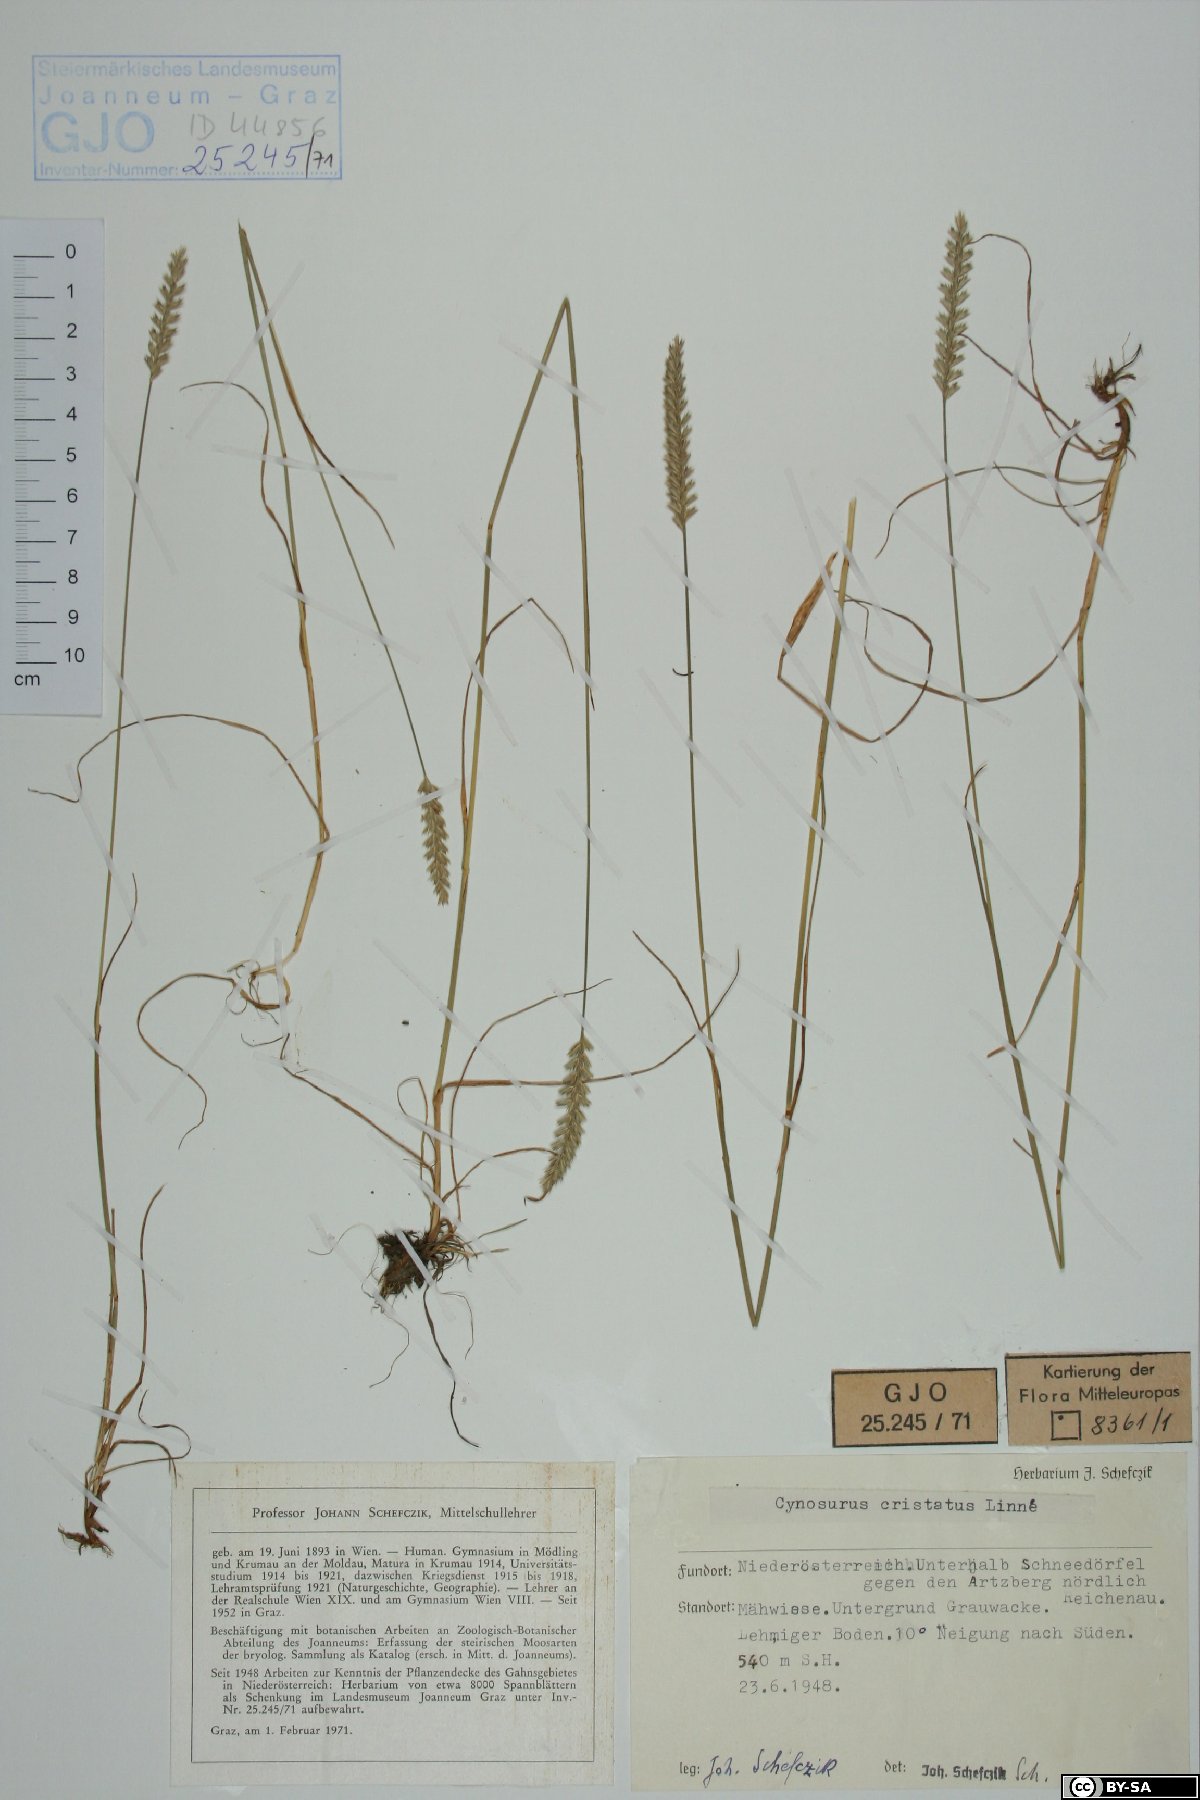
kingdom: Plantae
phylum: Tracheophyta
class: Liliopsida
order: Poales
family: Poaceae
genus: Cynosurus
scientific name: Cynosurus cristatus
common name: Crested dog's-tail
